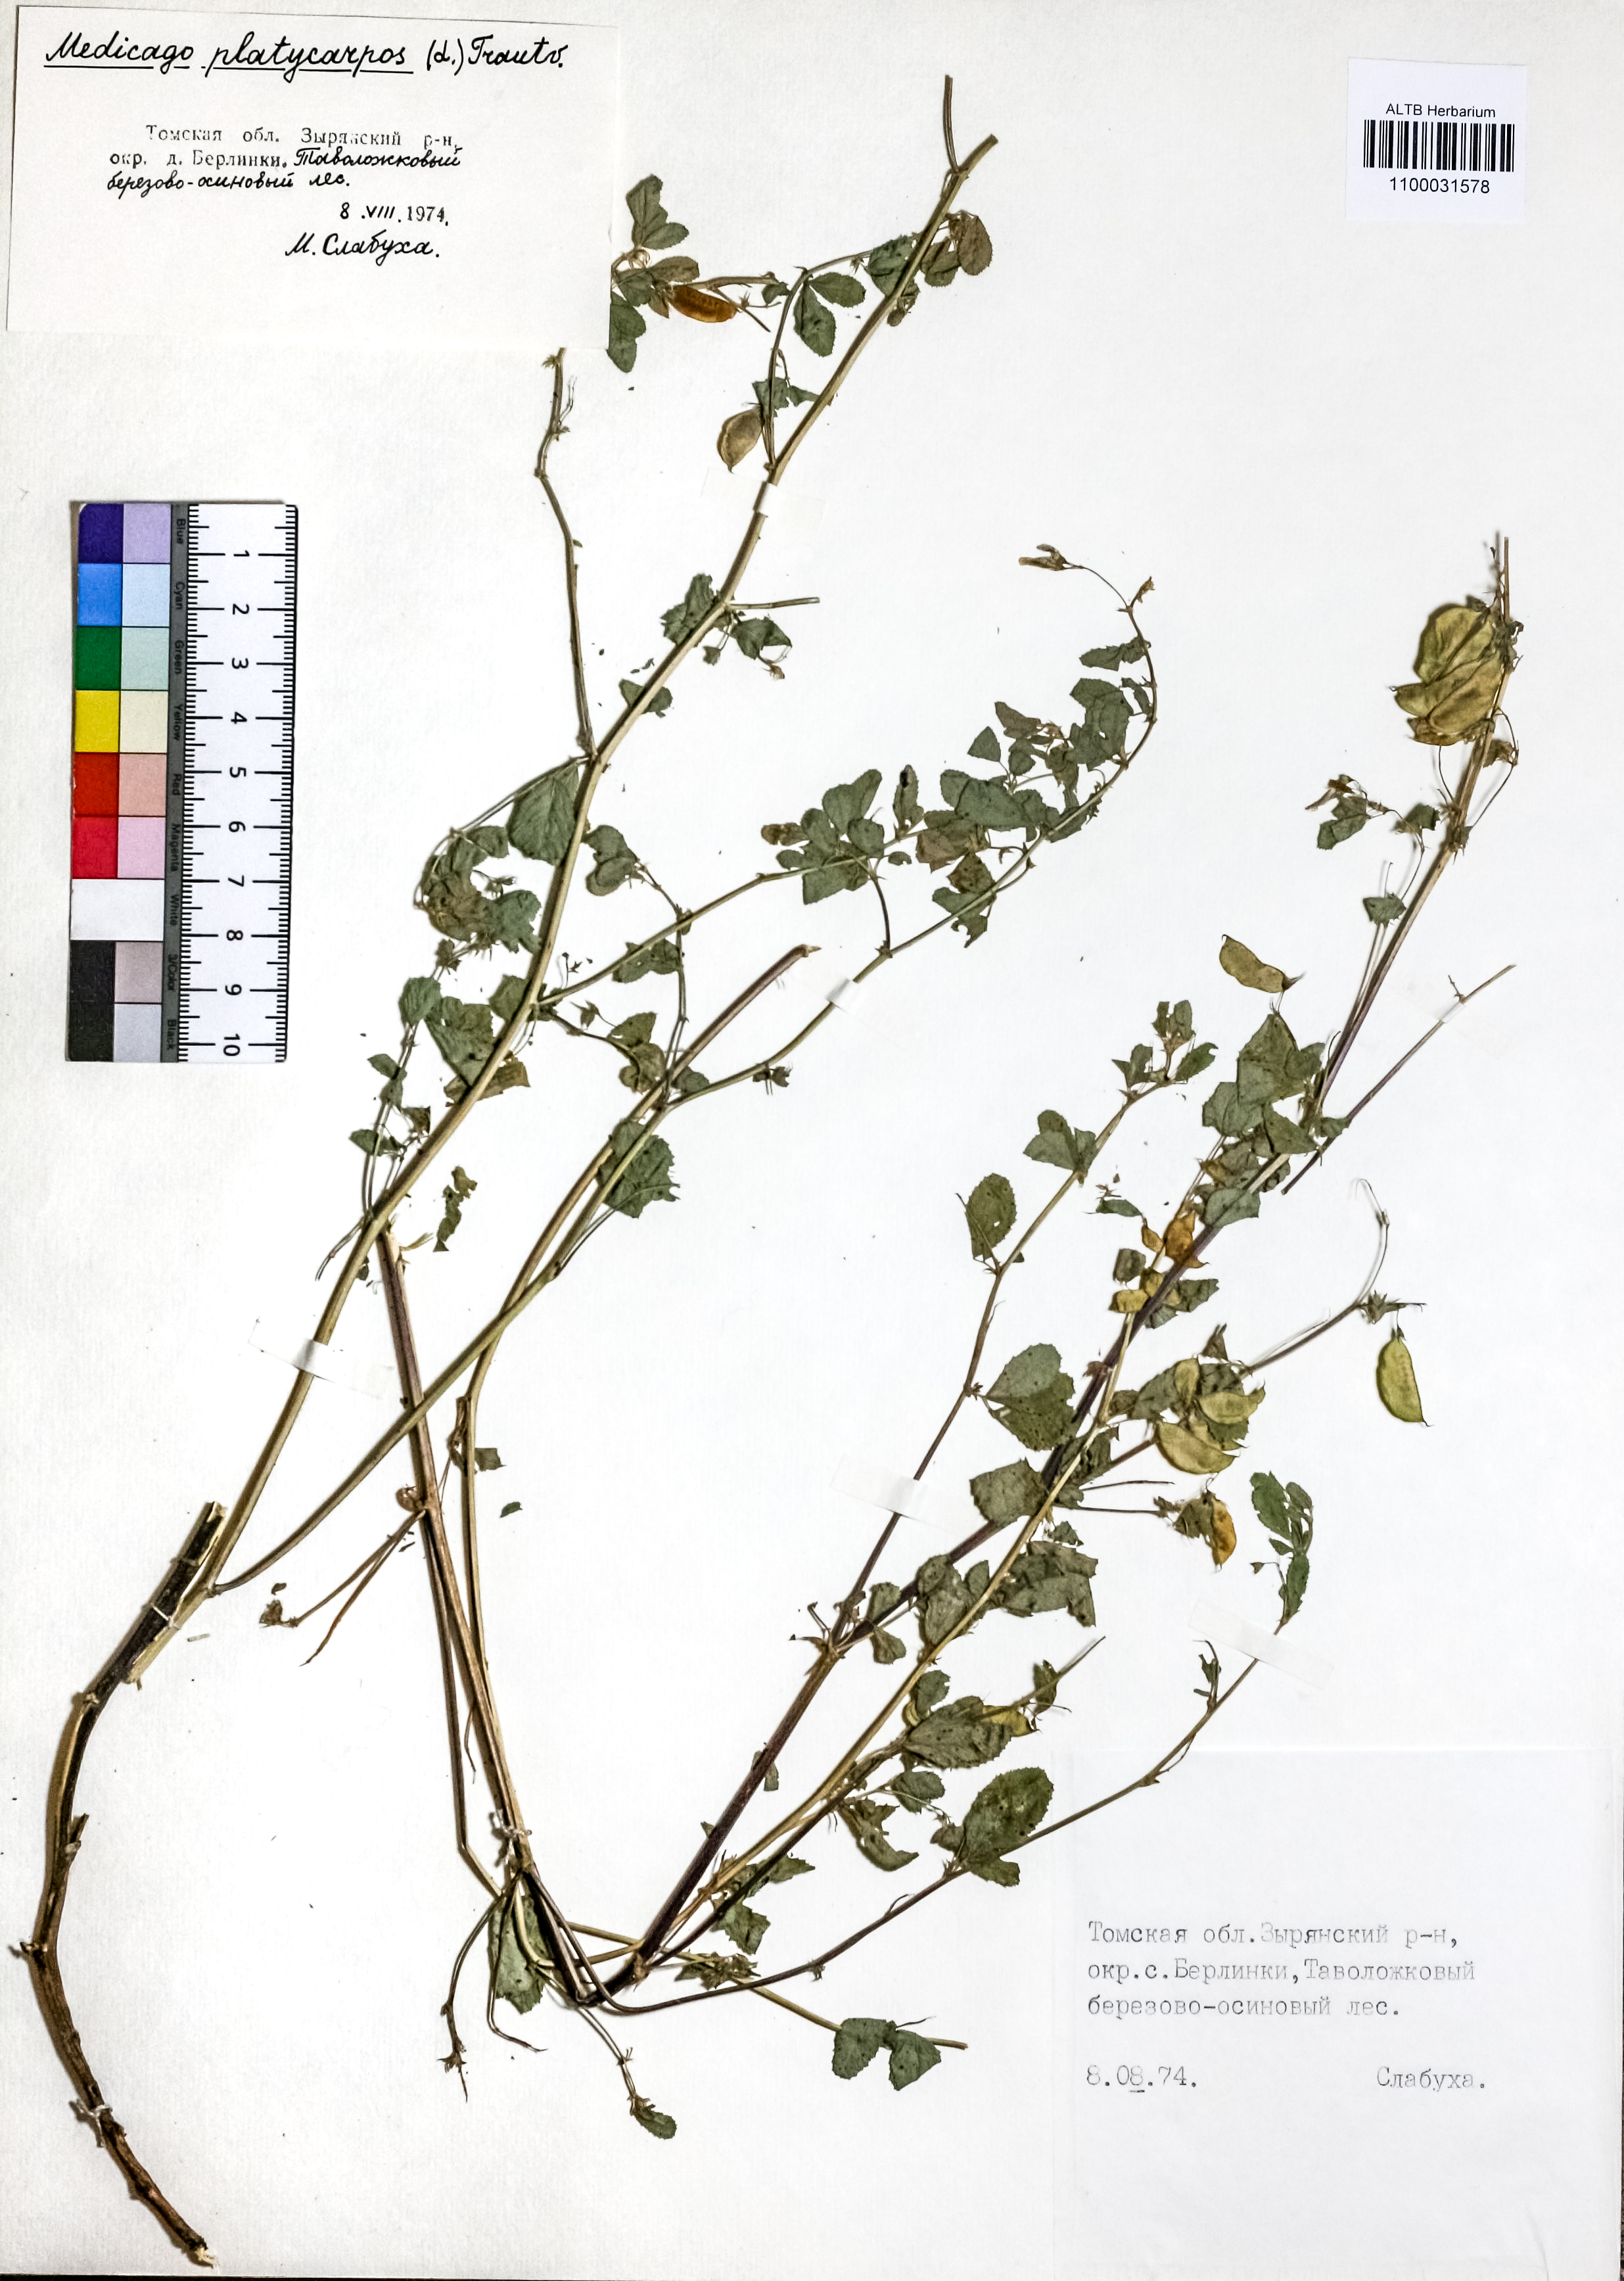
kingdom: Plantae
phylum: Tracheophyta
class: Magnoliopsida
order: Fabales
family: Fabaceae
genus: Medicago
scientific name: Medicago platycarpos
